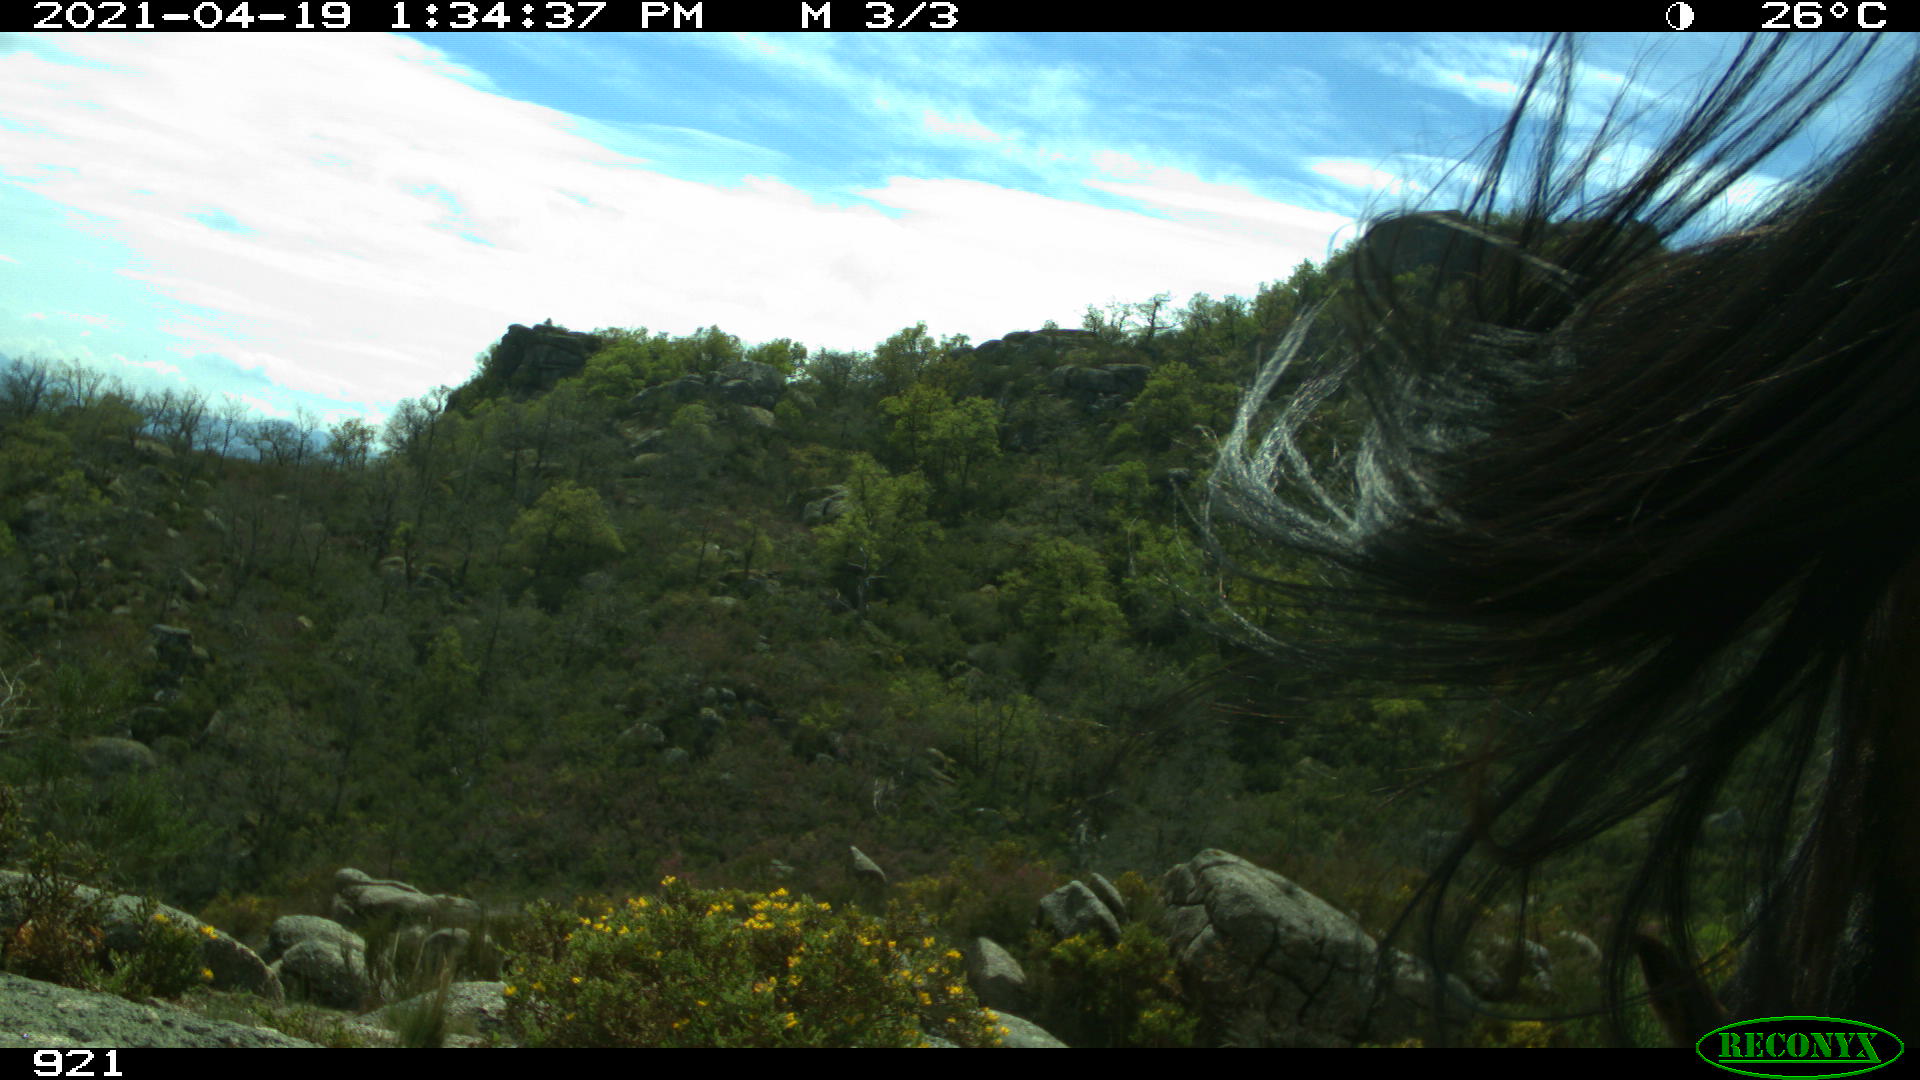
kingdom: Animalia
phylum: Chordata
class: Mammalia
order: Perissodactyla
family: Equidae
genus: Equus
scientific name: Equus caballus
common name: Horse
